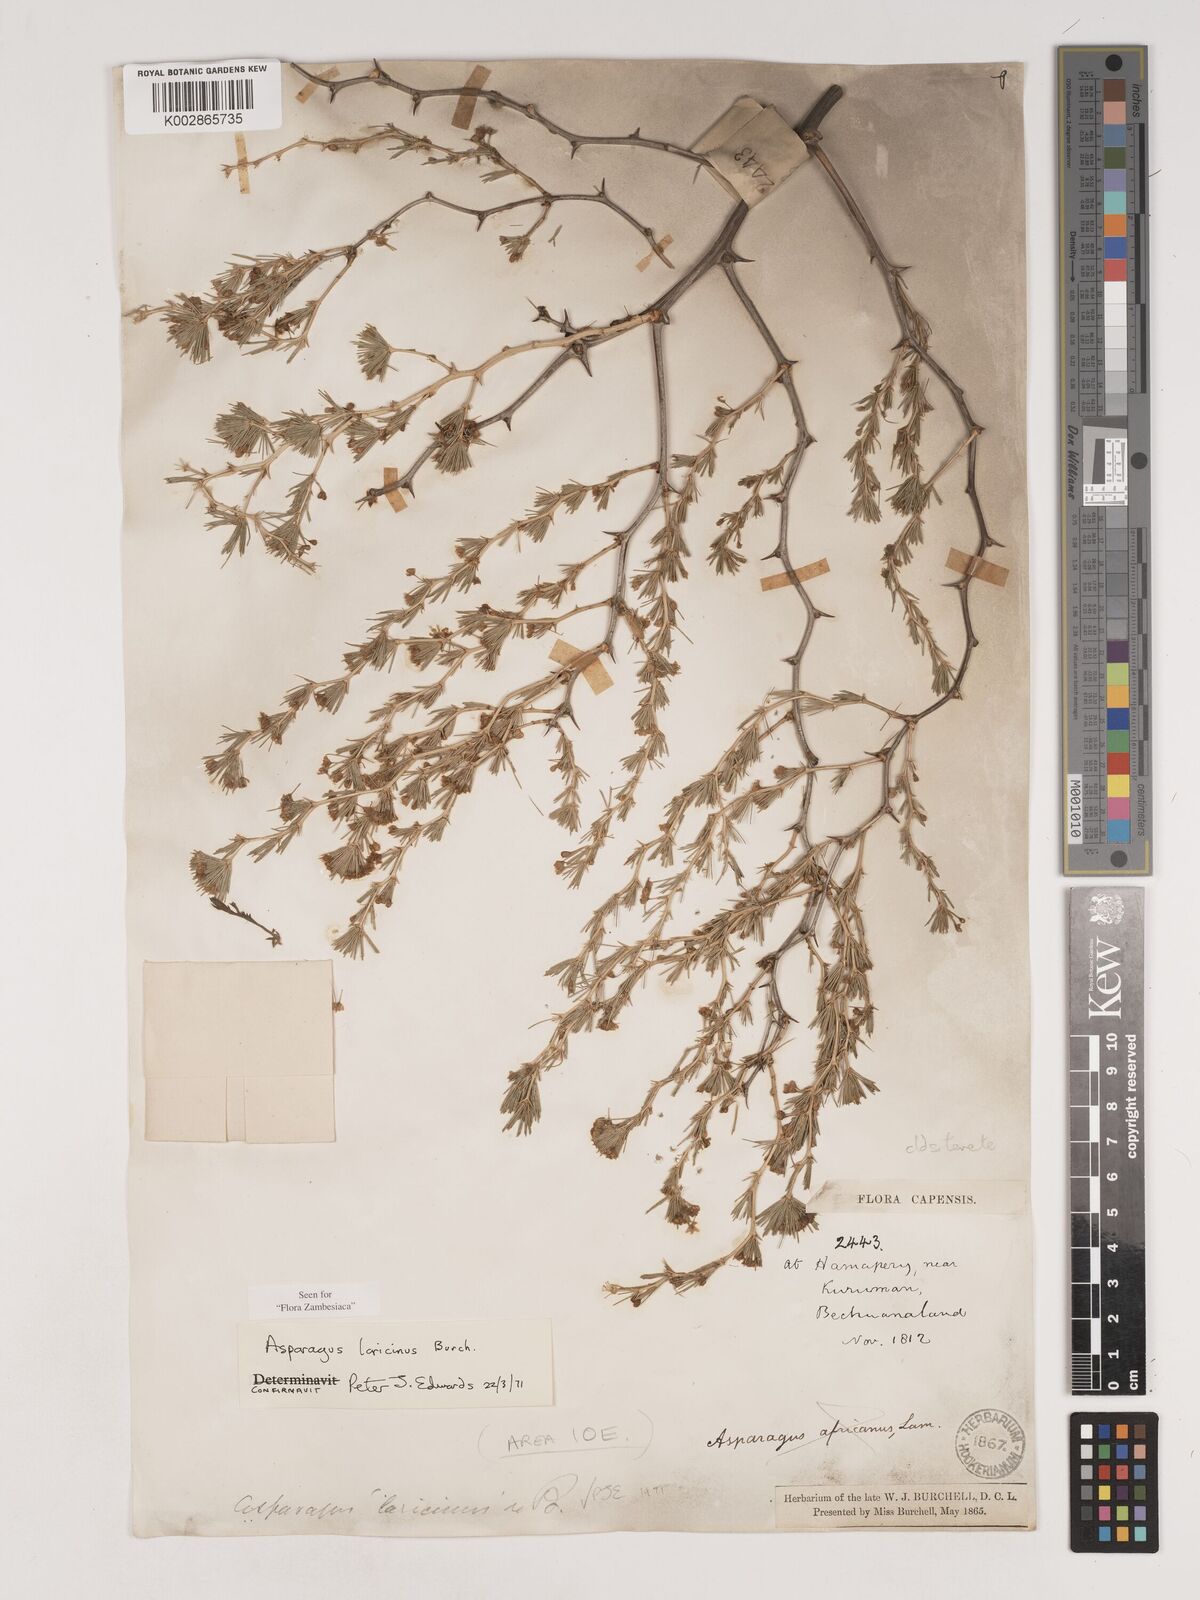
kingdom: Plantae
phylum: Tracheophyta
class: Liliopsida
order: Asparagales
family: Asparagaceae
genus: Asparagus
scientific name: Asparagus laricinus
